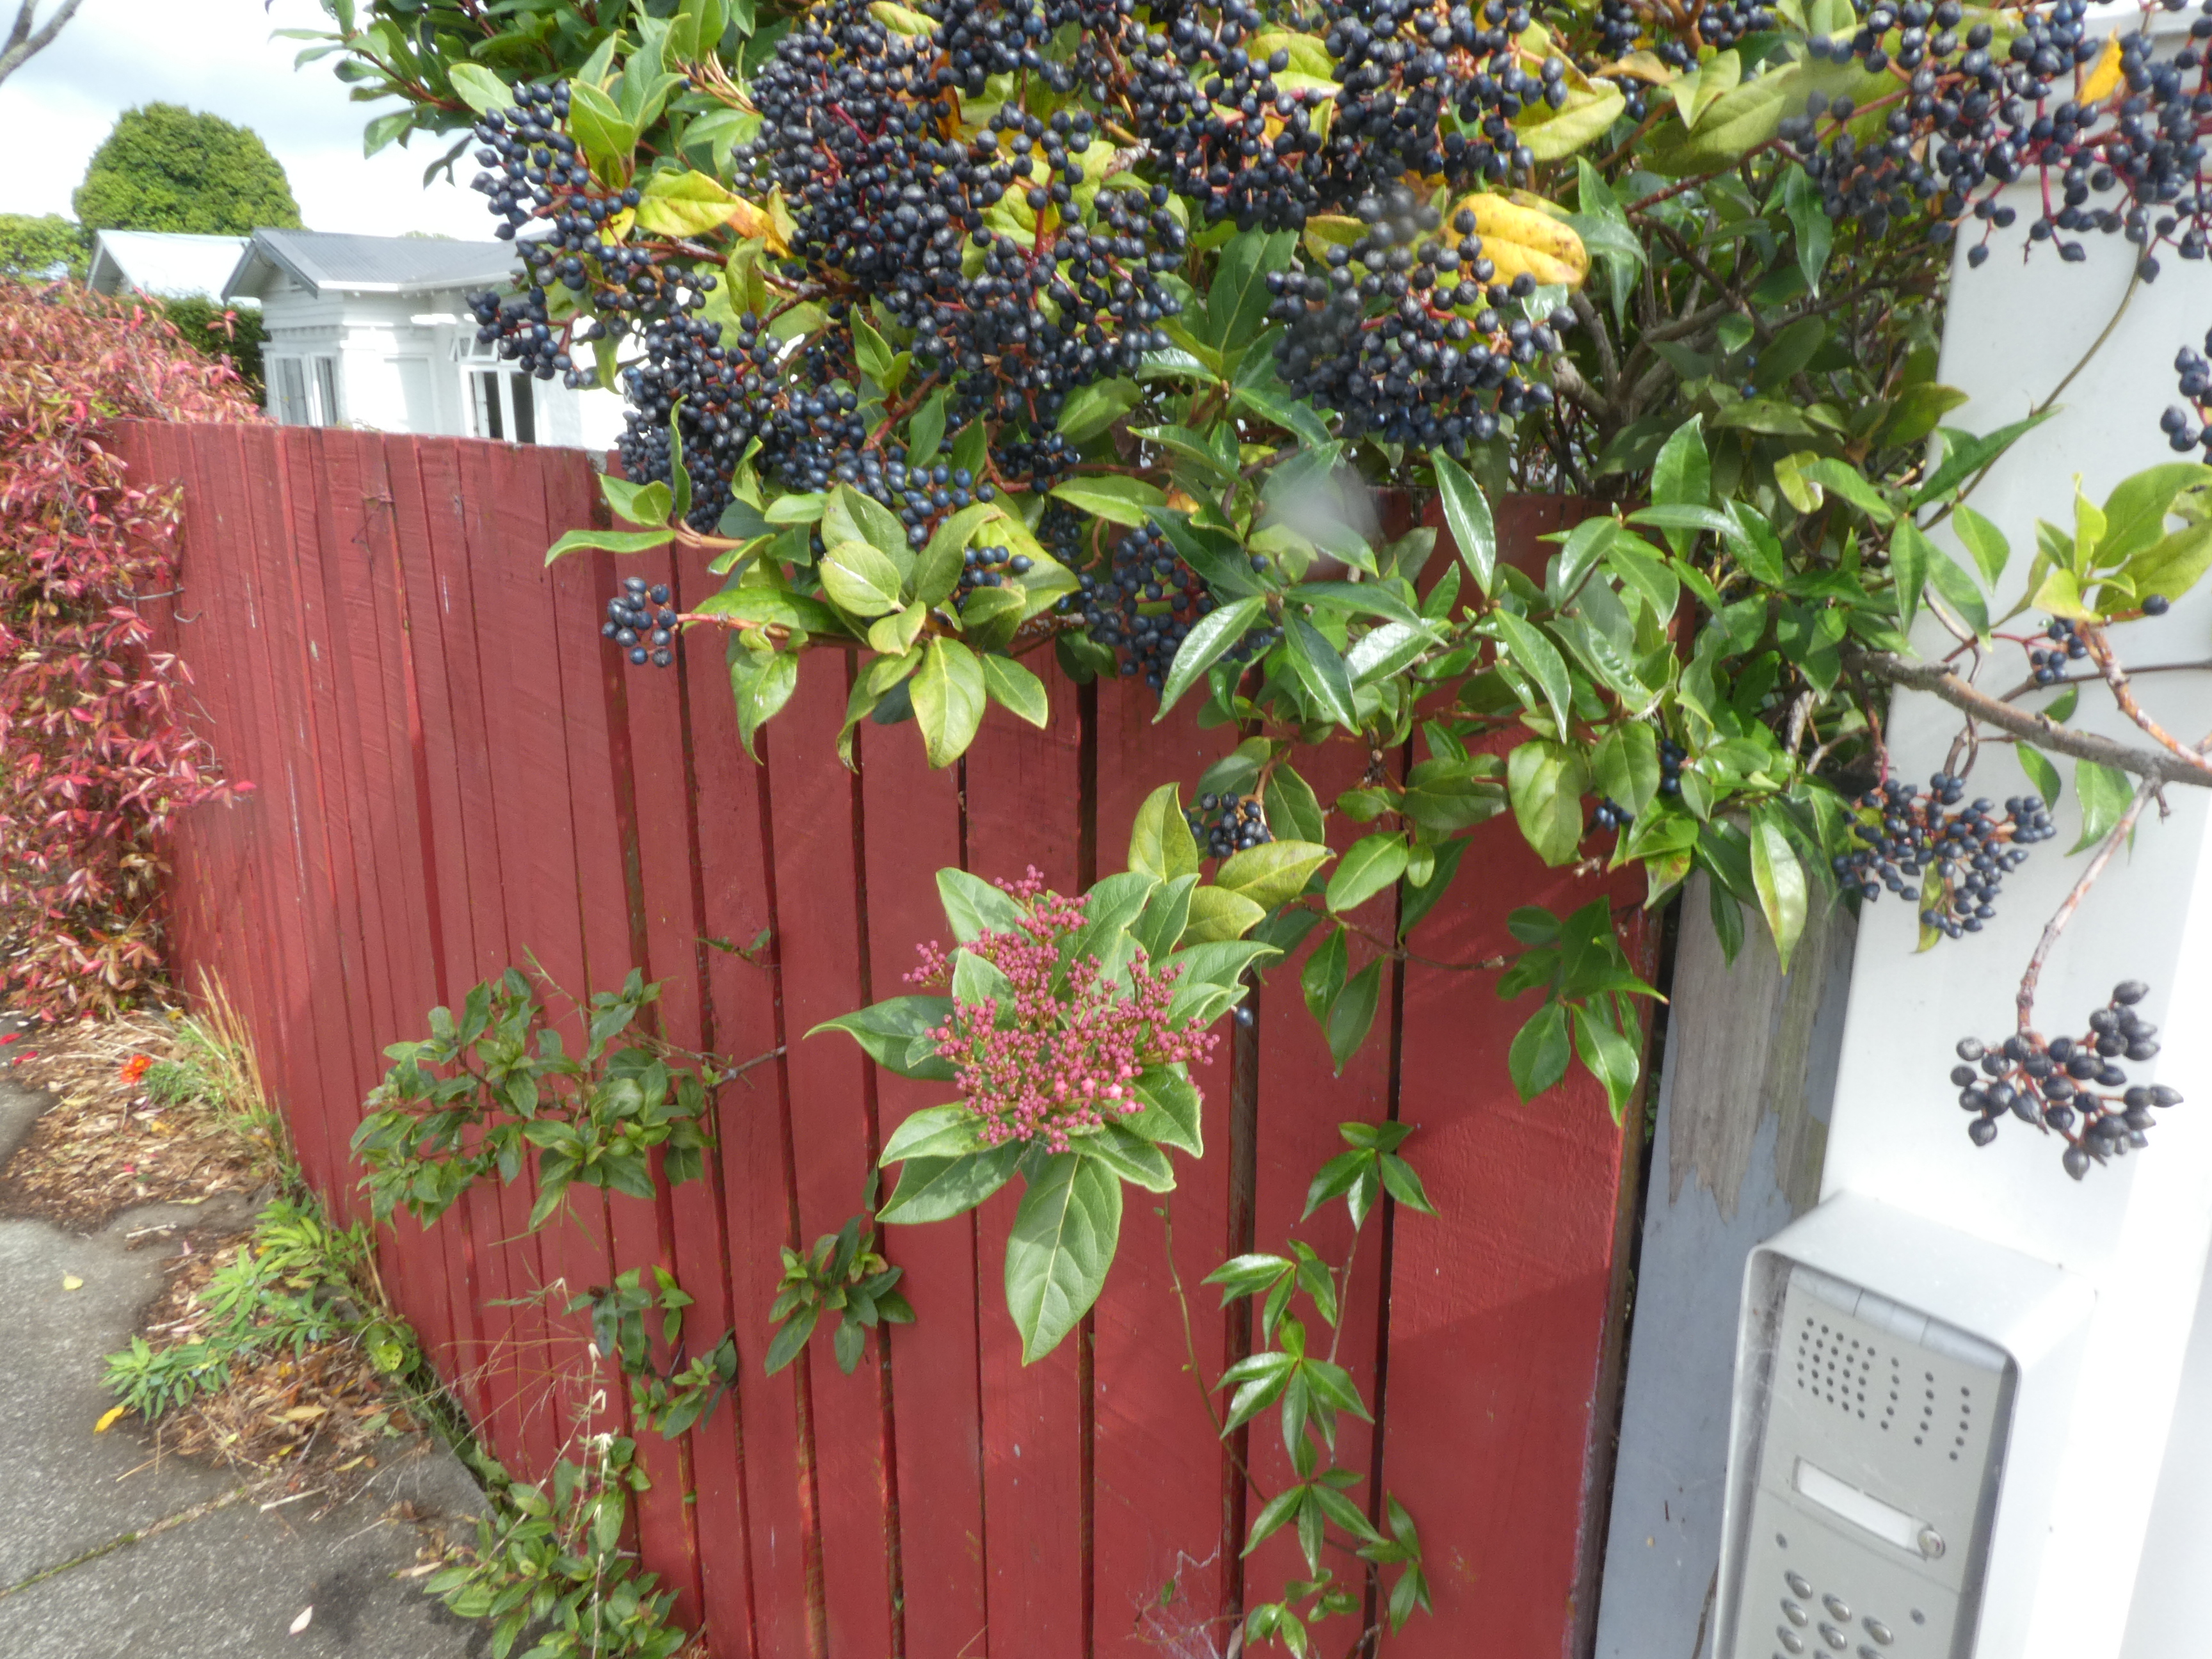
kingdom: Plantae
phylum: Tracheophyta
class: Magnoliopsida
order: Dipsacales
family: Viburnaceae
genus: Viburnum
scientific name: Viburnum tinus
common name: Laurustinus
